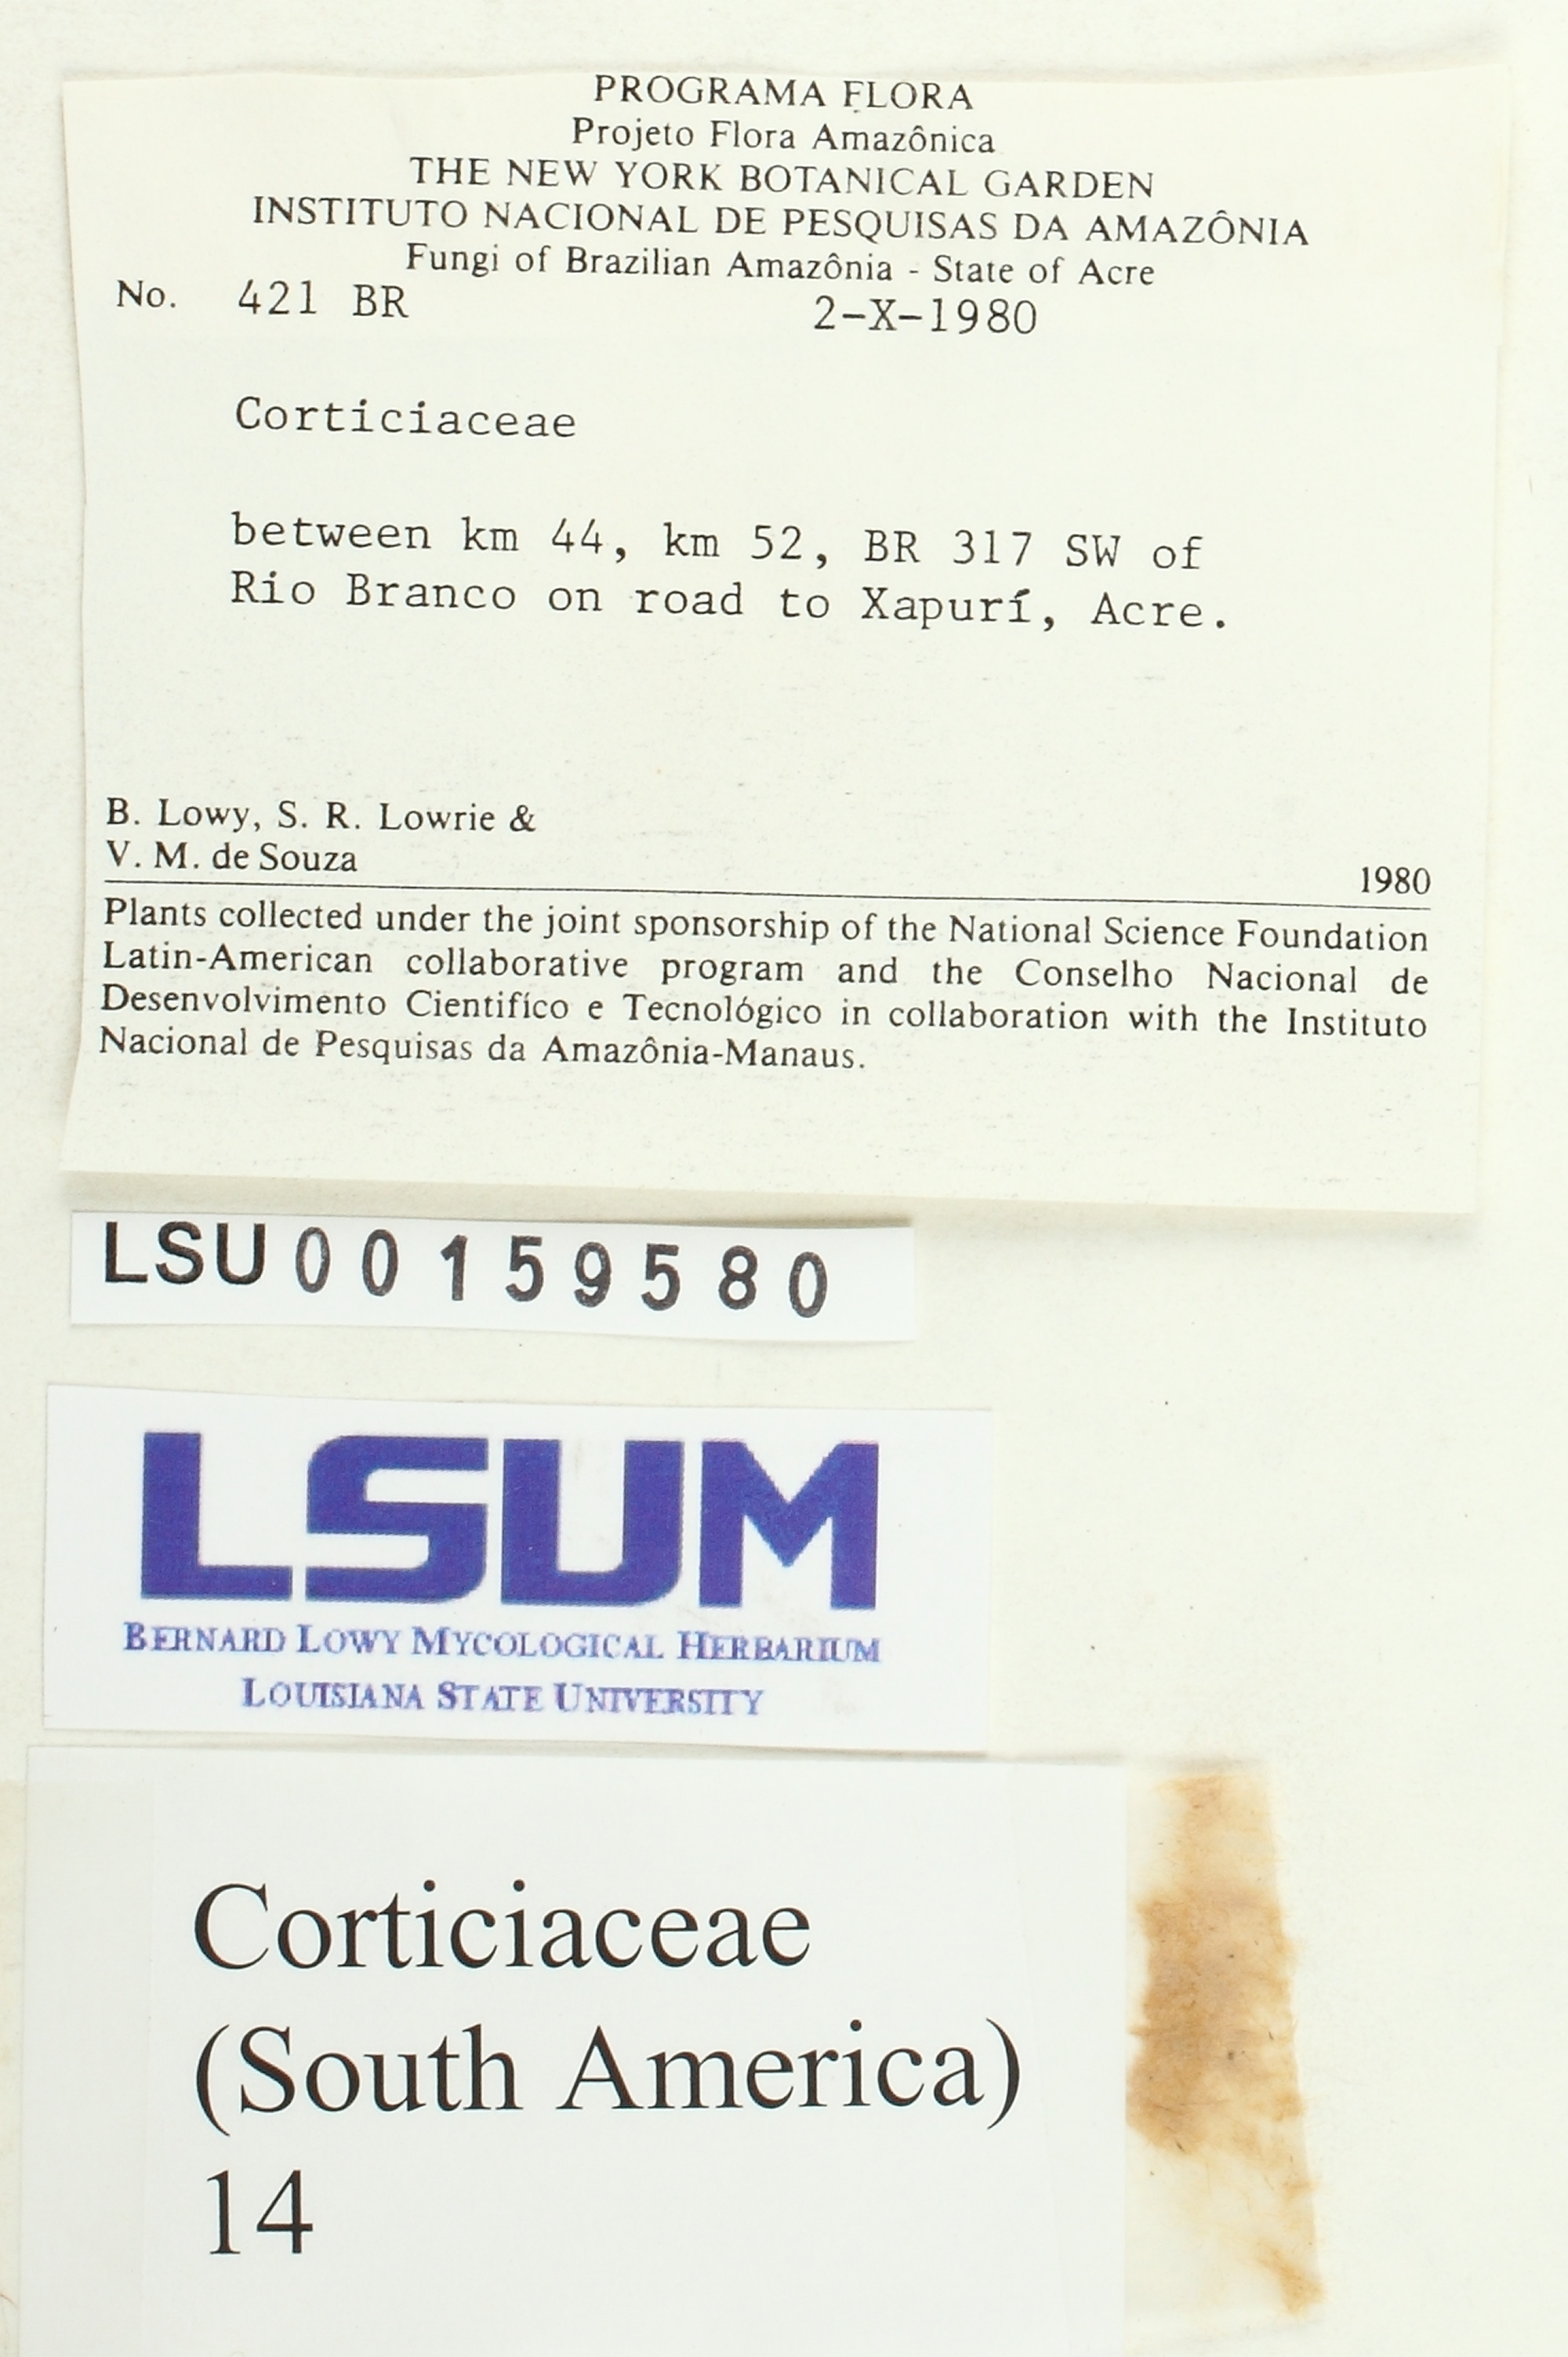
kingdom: Fungi
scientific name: Fungi
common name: Fungi
